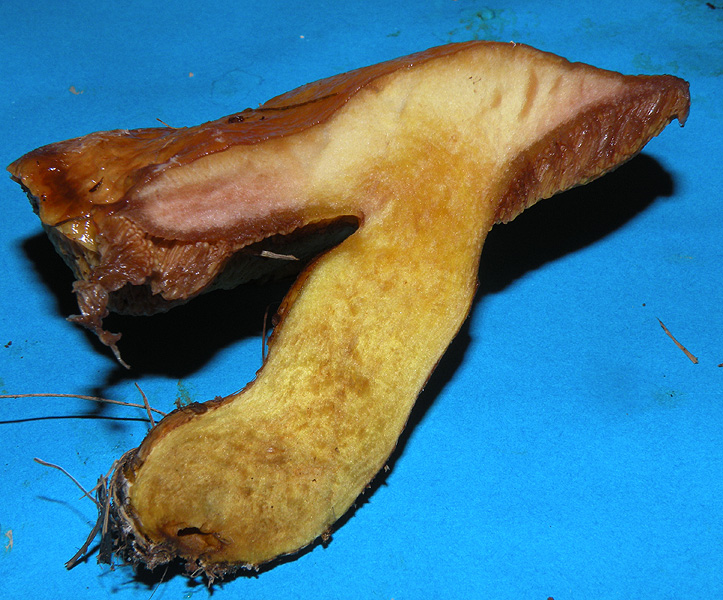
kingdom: Fungi
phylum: Basidiomycota
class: Agaricomycetes
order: Boletales
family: Suillaceae
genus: Suillus
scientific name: Suillus grevillei
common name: lærke-slimrørhat
